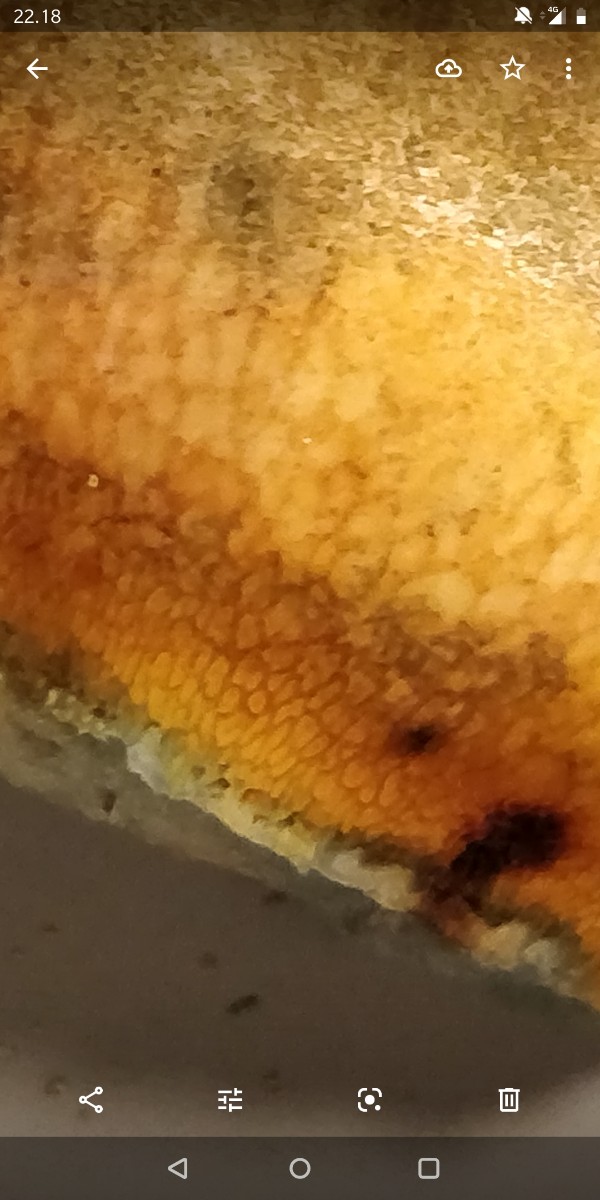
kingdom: Fungi
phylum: Basidiomycota
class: Agaricomycetes
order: Boletales
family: Boletaceae
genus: Suillellus
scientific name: Suillellus luridus
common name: netstokket indigorørhat
